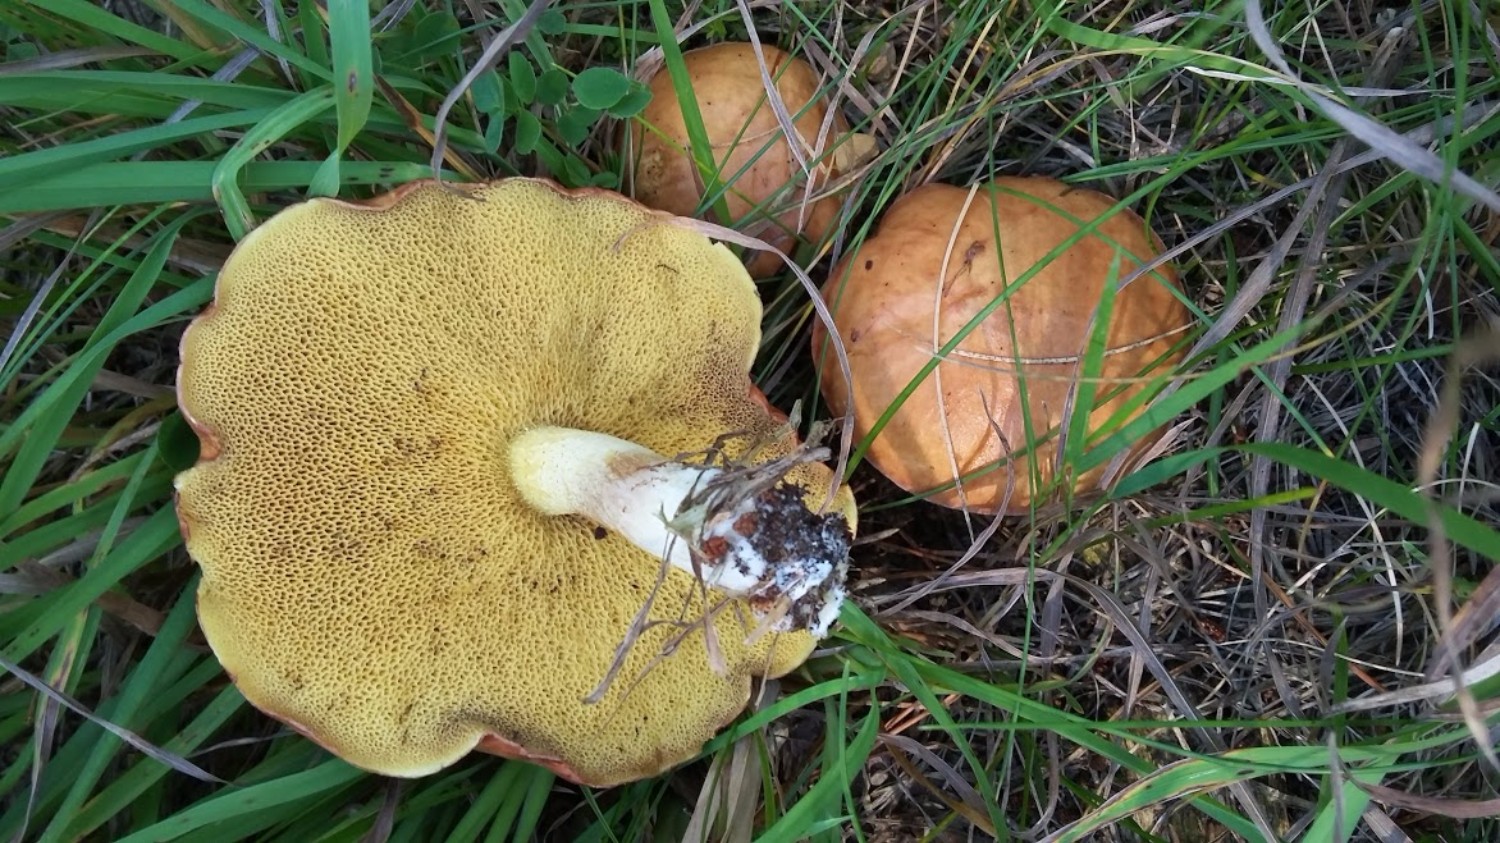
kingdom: Fungi
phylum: Basidiomycota
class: Agaricomycetes
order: Boletales
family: Suillaceae
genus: Suillus
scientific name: Suillus bovinus
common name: grovporet slimrørhat
